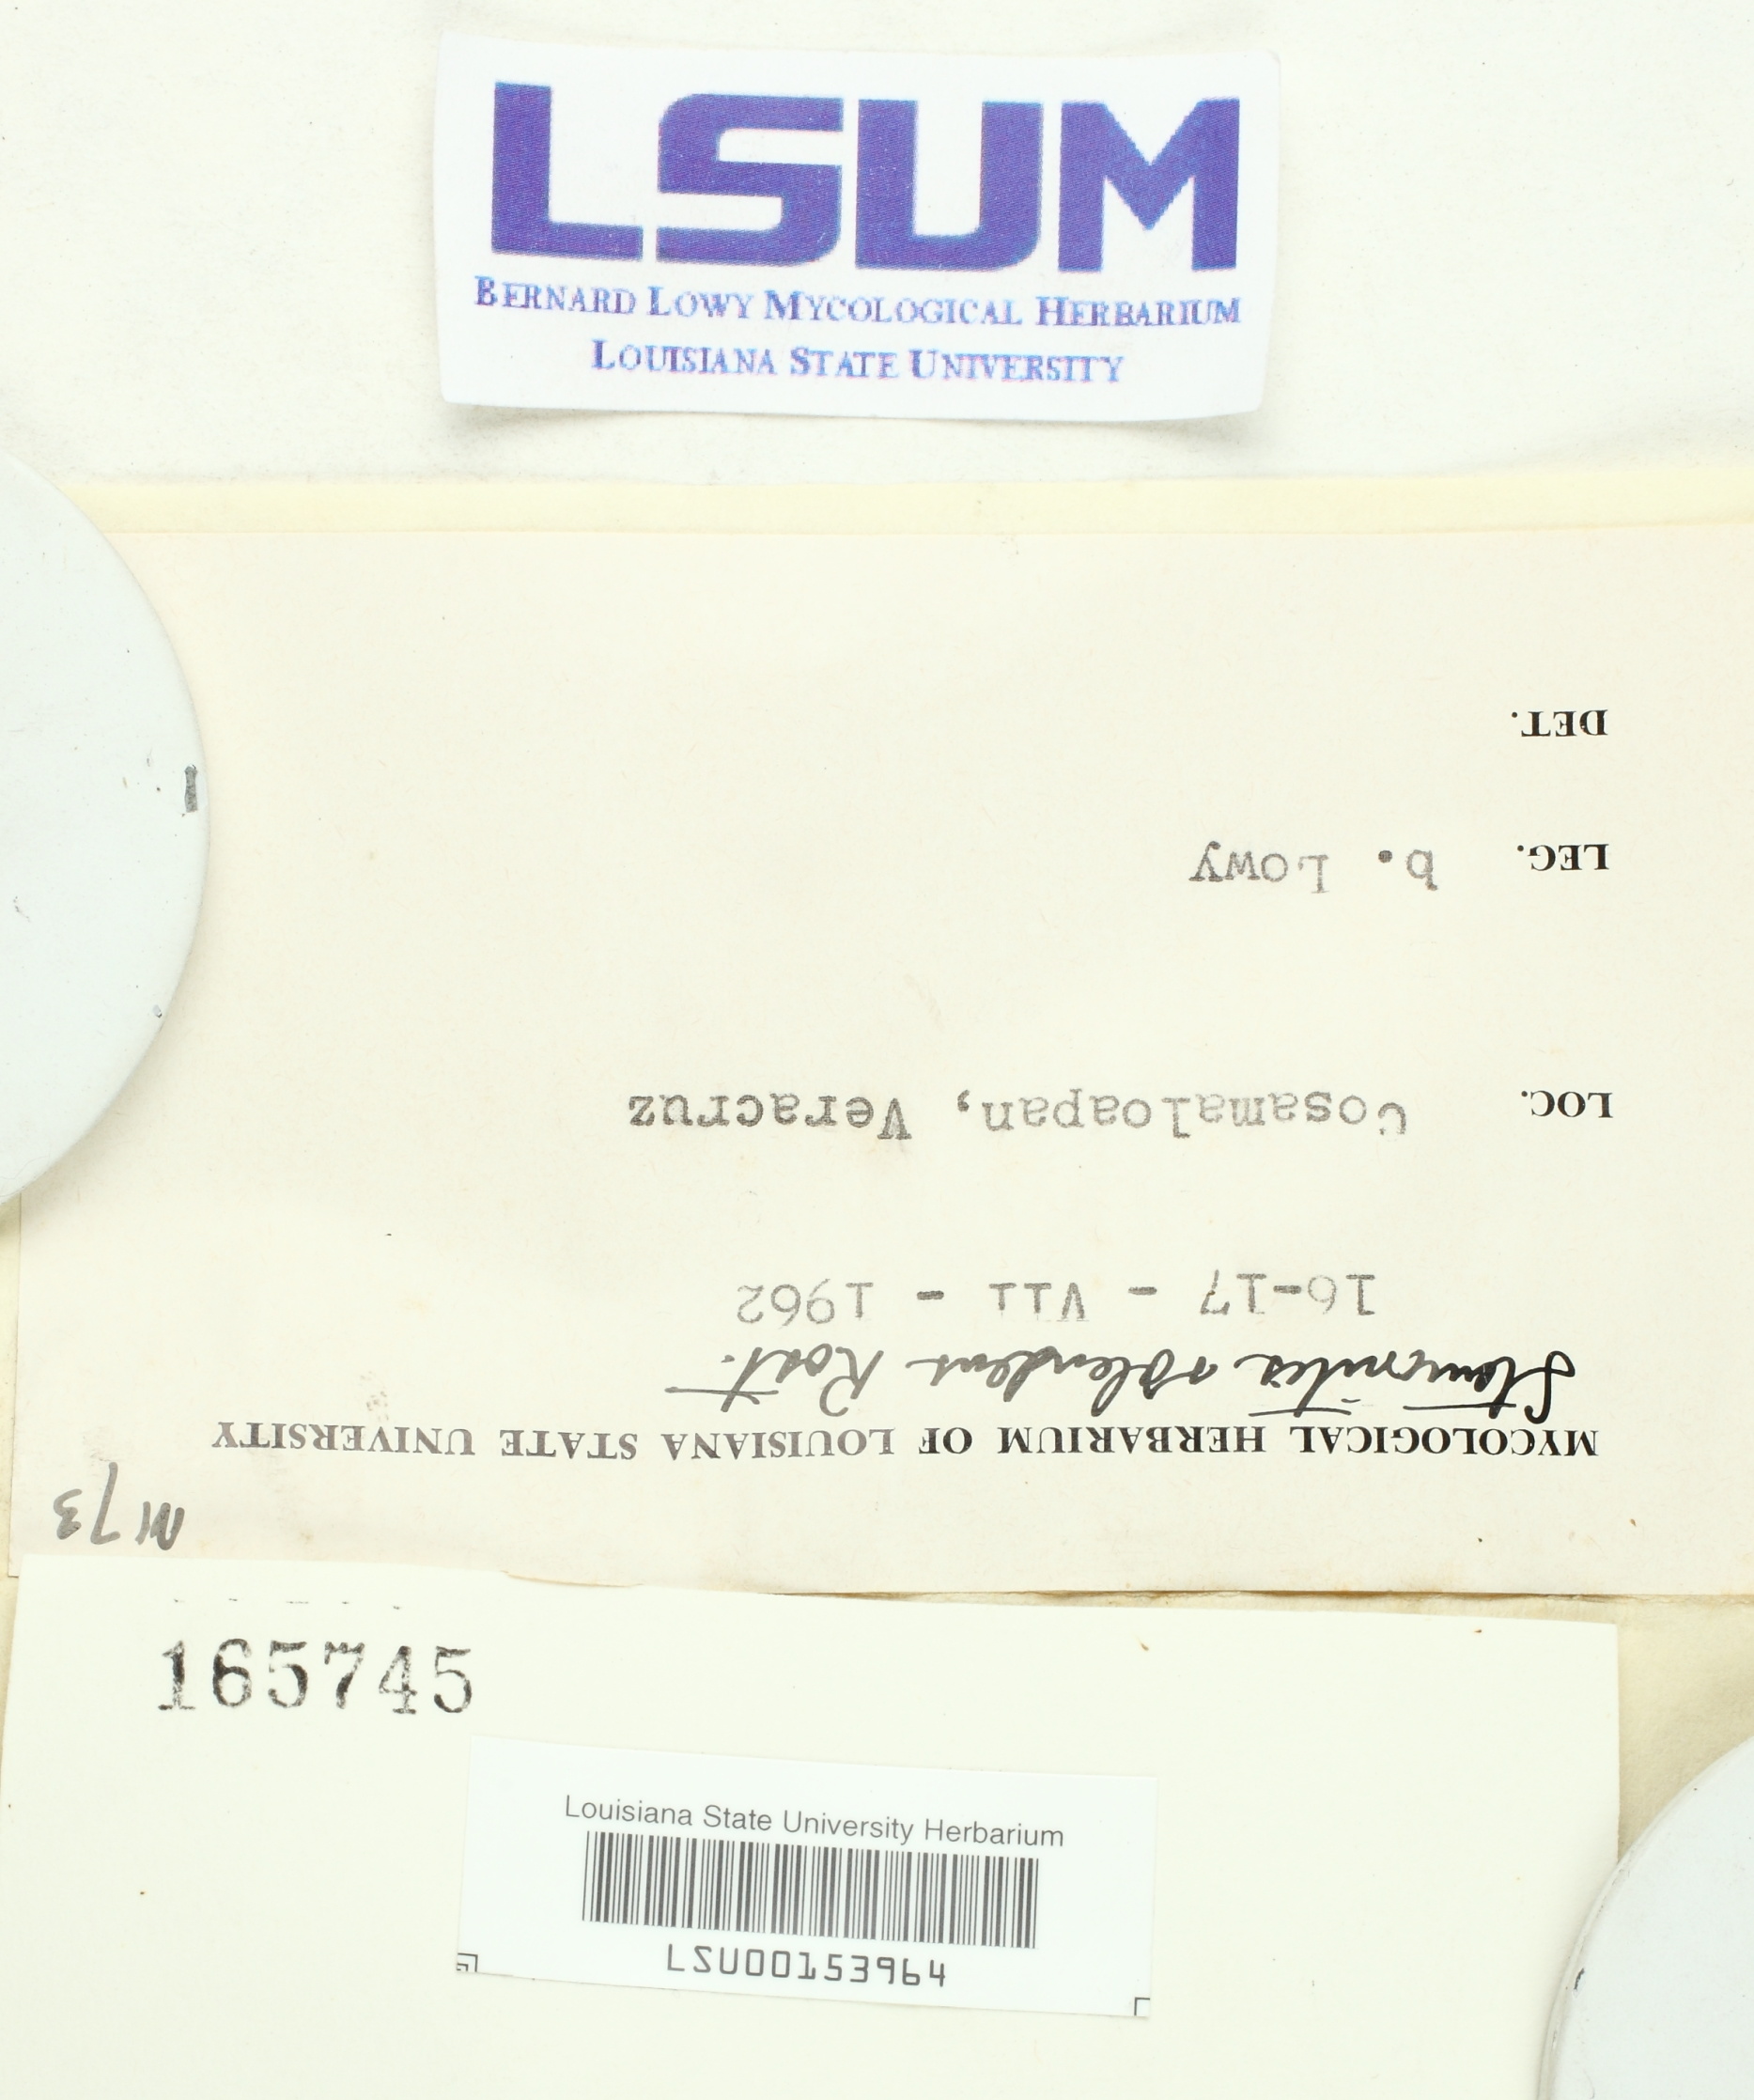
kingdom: Protozoa
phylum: Mycetozoa
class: Myxomycetes
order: Stemonitidales
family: Stemonitidaceae
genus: Stemonitis
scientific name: Stemonitis splendens
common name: Chocolate tube slime
